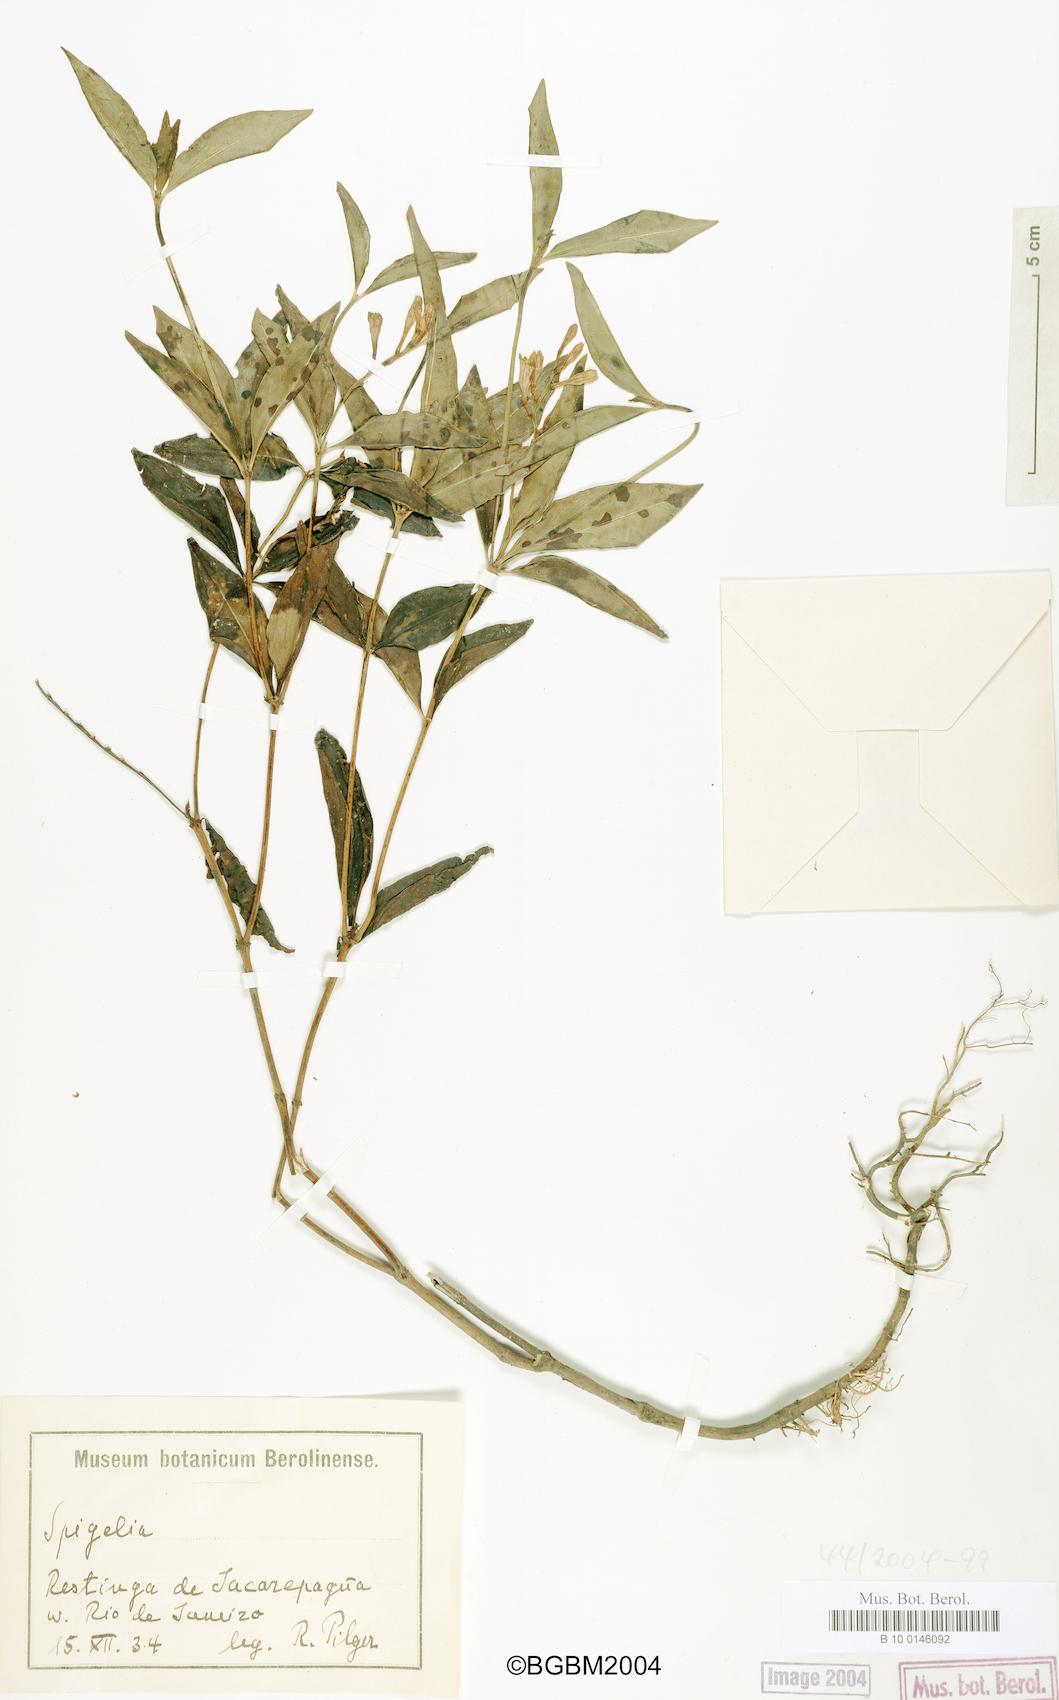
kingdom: Plantae
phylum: Tracheophyta
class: Magnoliopsida
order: Gentianales
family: Loganiaceae
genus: Spigelia
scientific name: Spigelia
